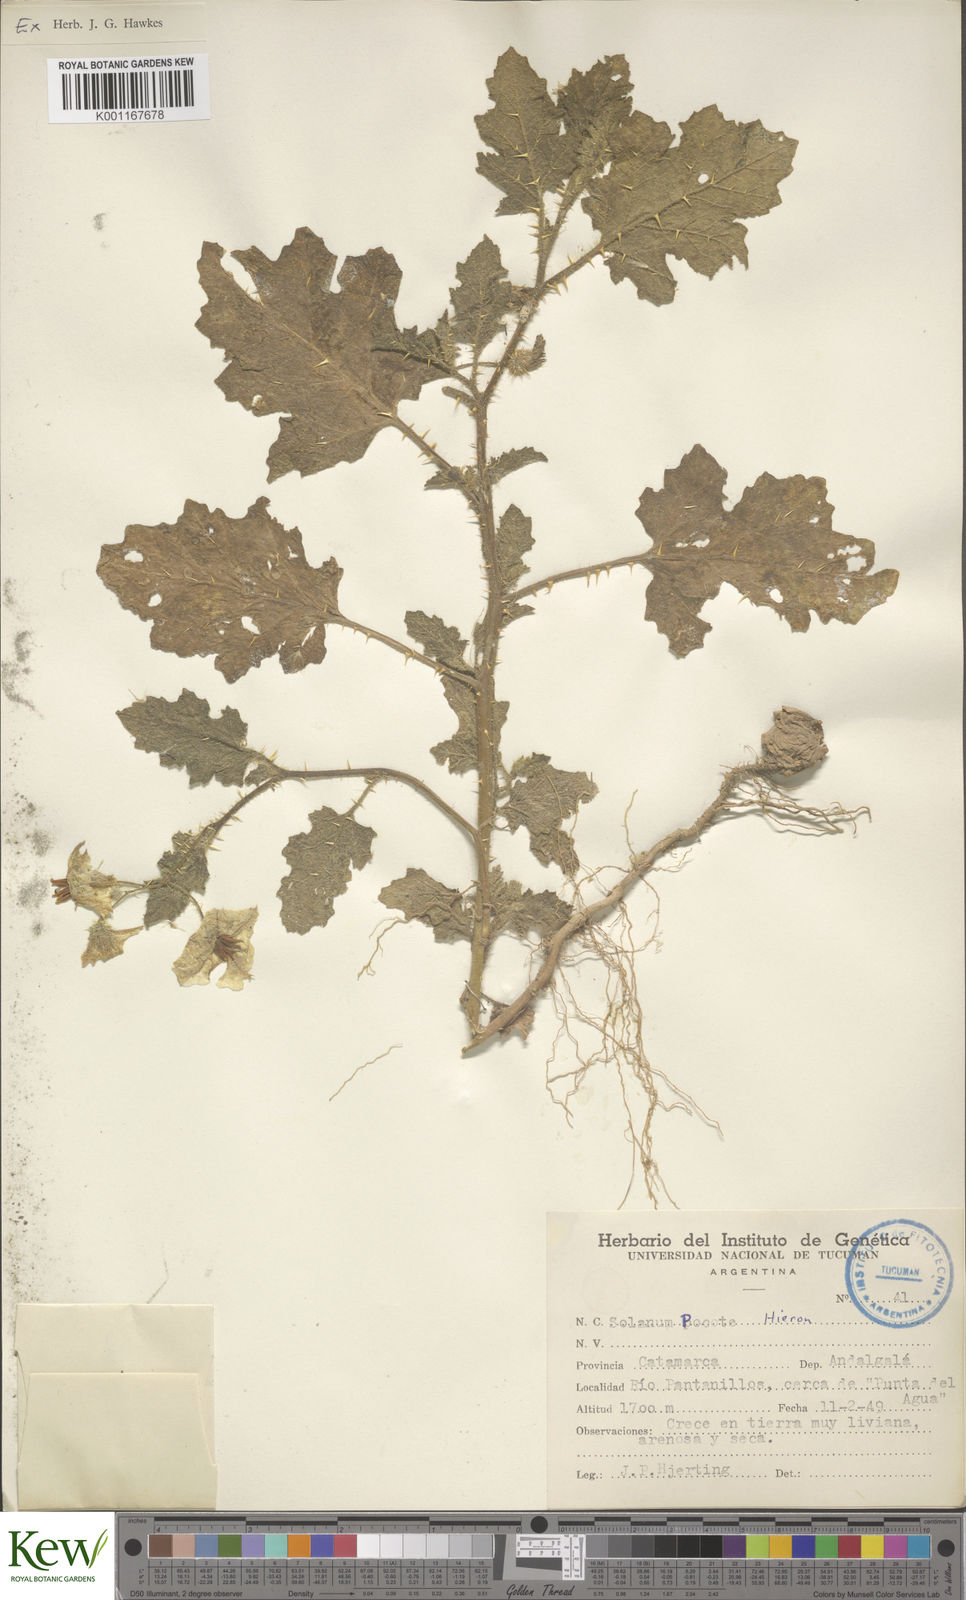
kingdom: Plantae
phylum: Tracheophyta
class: Magnoliopsida
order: Solanales
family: Solanaceae
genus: Solanum
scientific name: Solanum hieronymi
